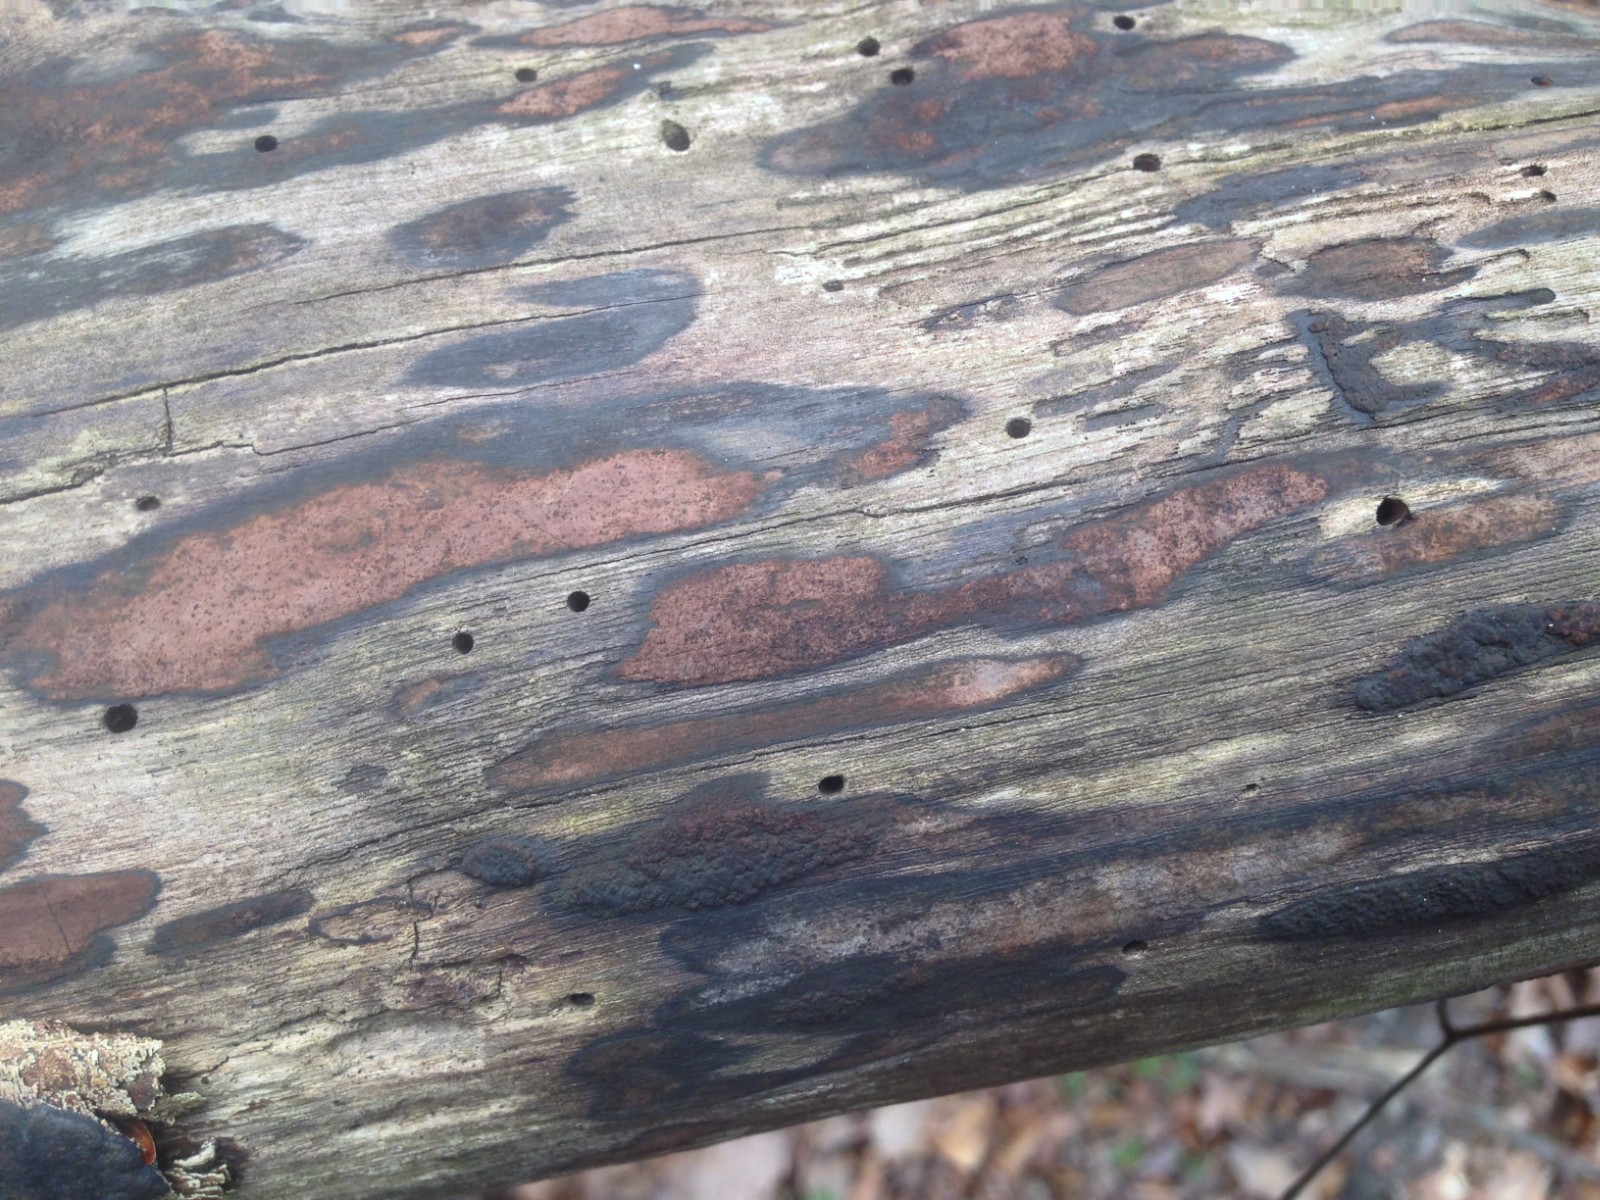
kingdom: Fungi
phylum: Ascomycota
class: Sordariomycetes
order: Xylariales
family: Hypoxylaceae
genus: Hypoxylon
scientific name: Hypoxylon petriniae
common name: nedsænket kulbær
